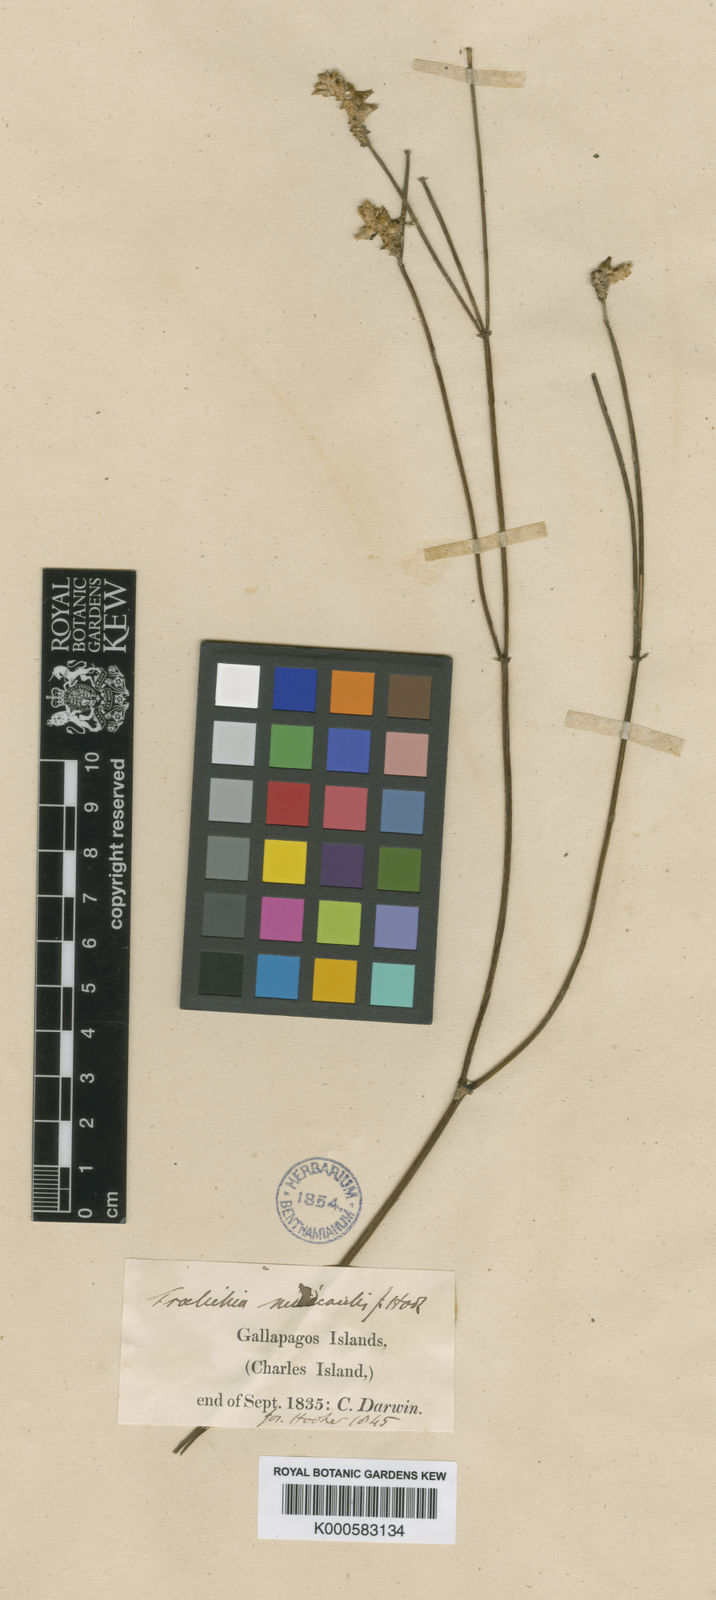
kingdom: Plantae
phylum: Tracheophyta
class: Magnoliopsida
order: Caryophyllales
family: Amaranthaceae
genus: Froelichia
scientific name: Froelichia nudicaulis
